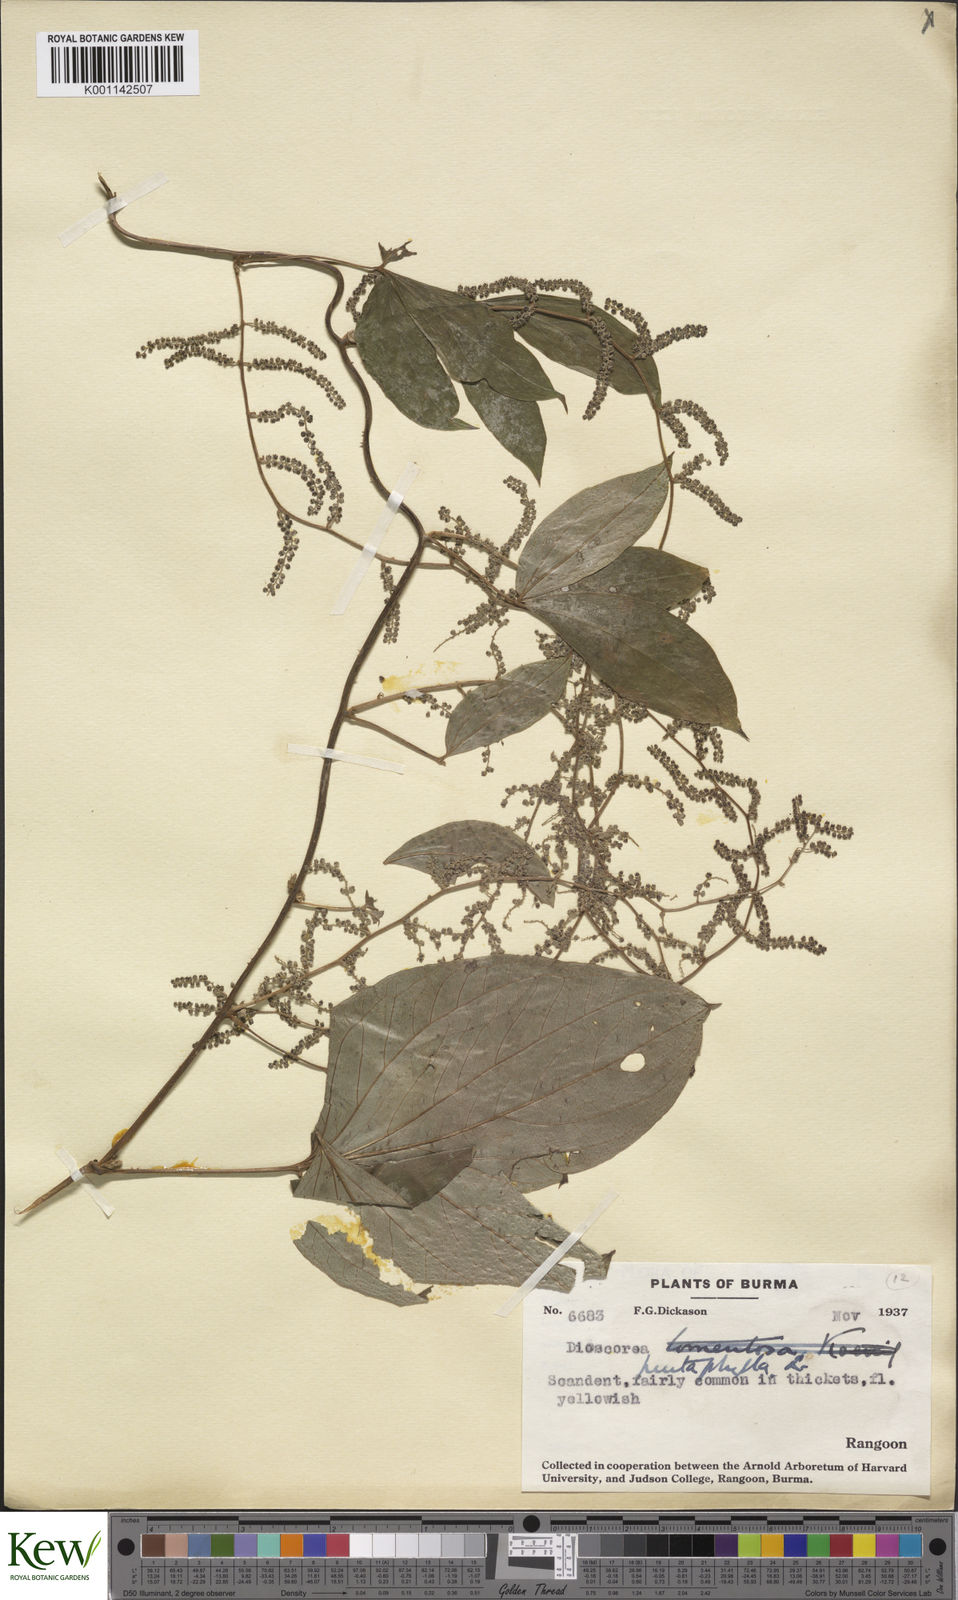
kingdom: Plantae
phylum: Tracheophyta
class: Liliopsida
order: Dioscoreales
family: Dioscoreaceae
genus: Dioscorea
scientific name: Dioscorea pentaphylla
